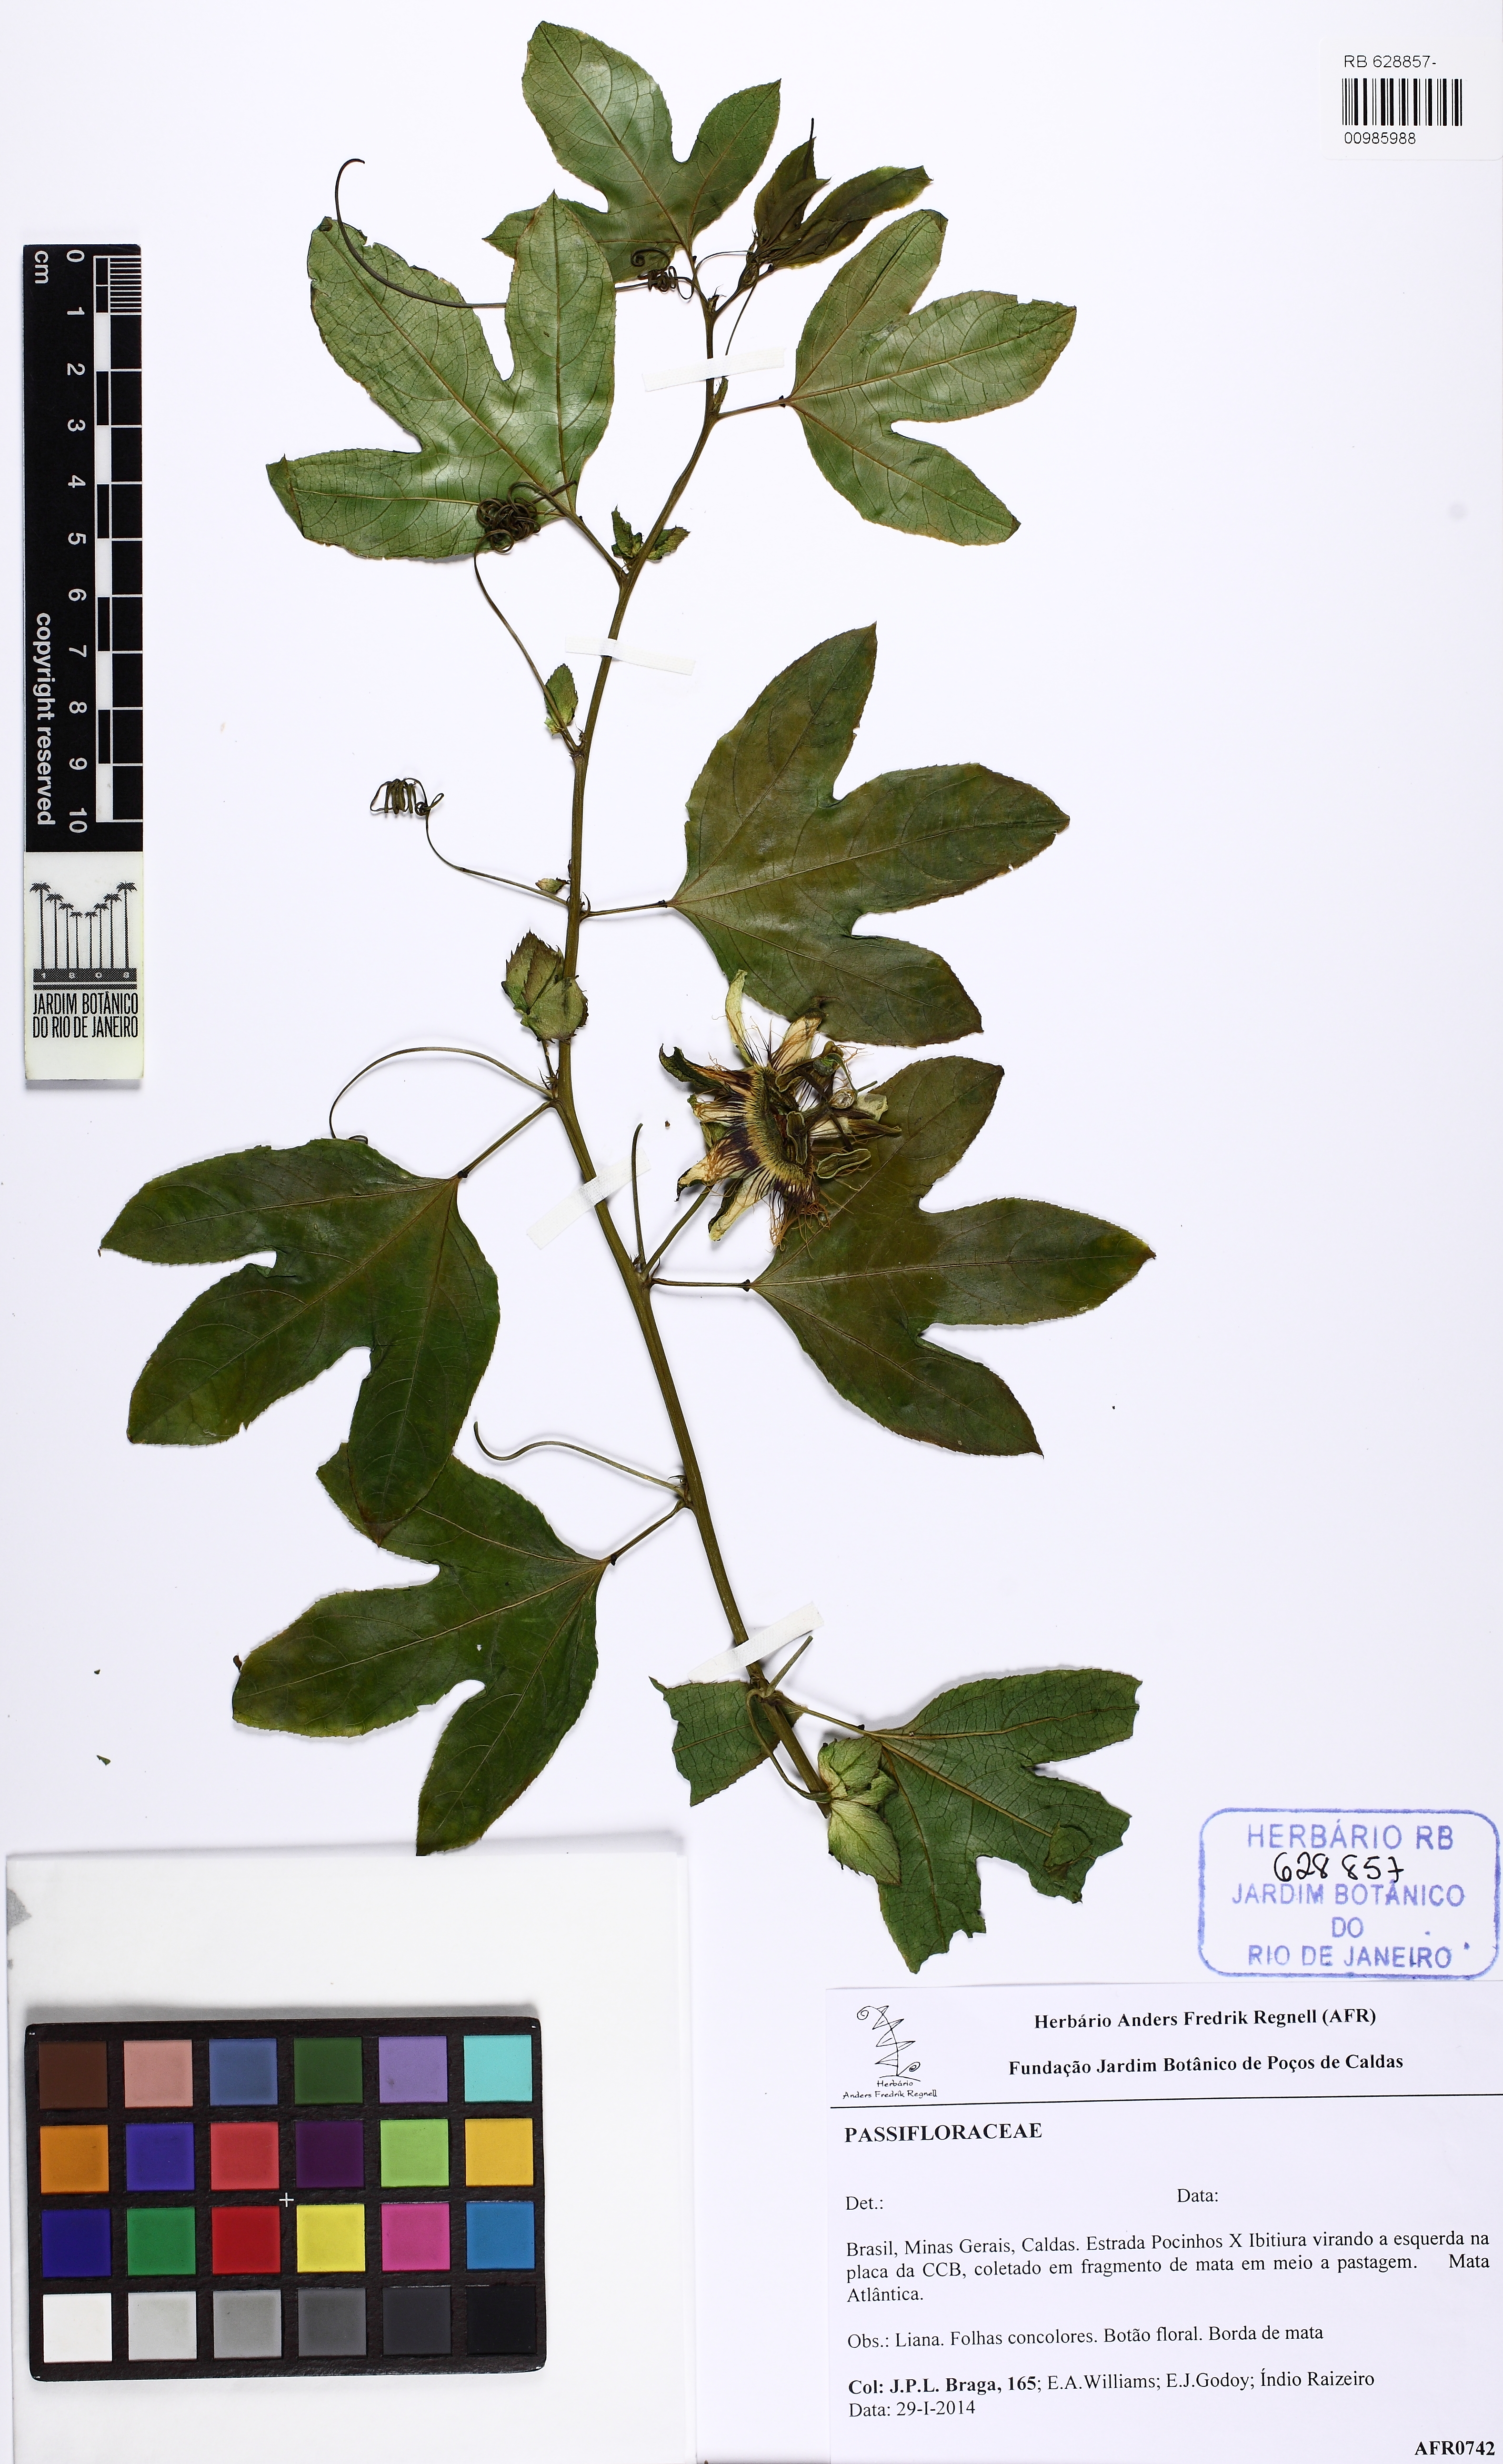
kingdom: Plantae
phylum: Tracheophyta
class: Magnoliopsida
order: Malpighiales
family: Passifloraceae
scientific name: Passifloraceae
